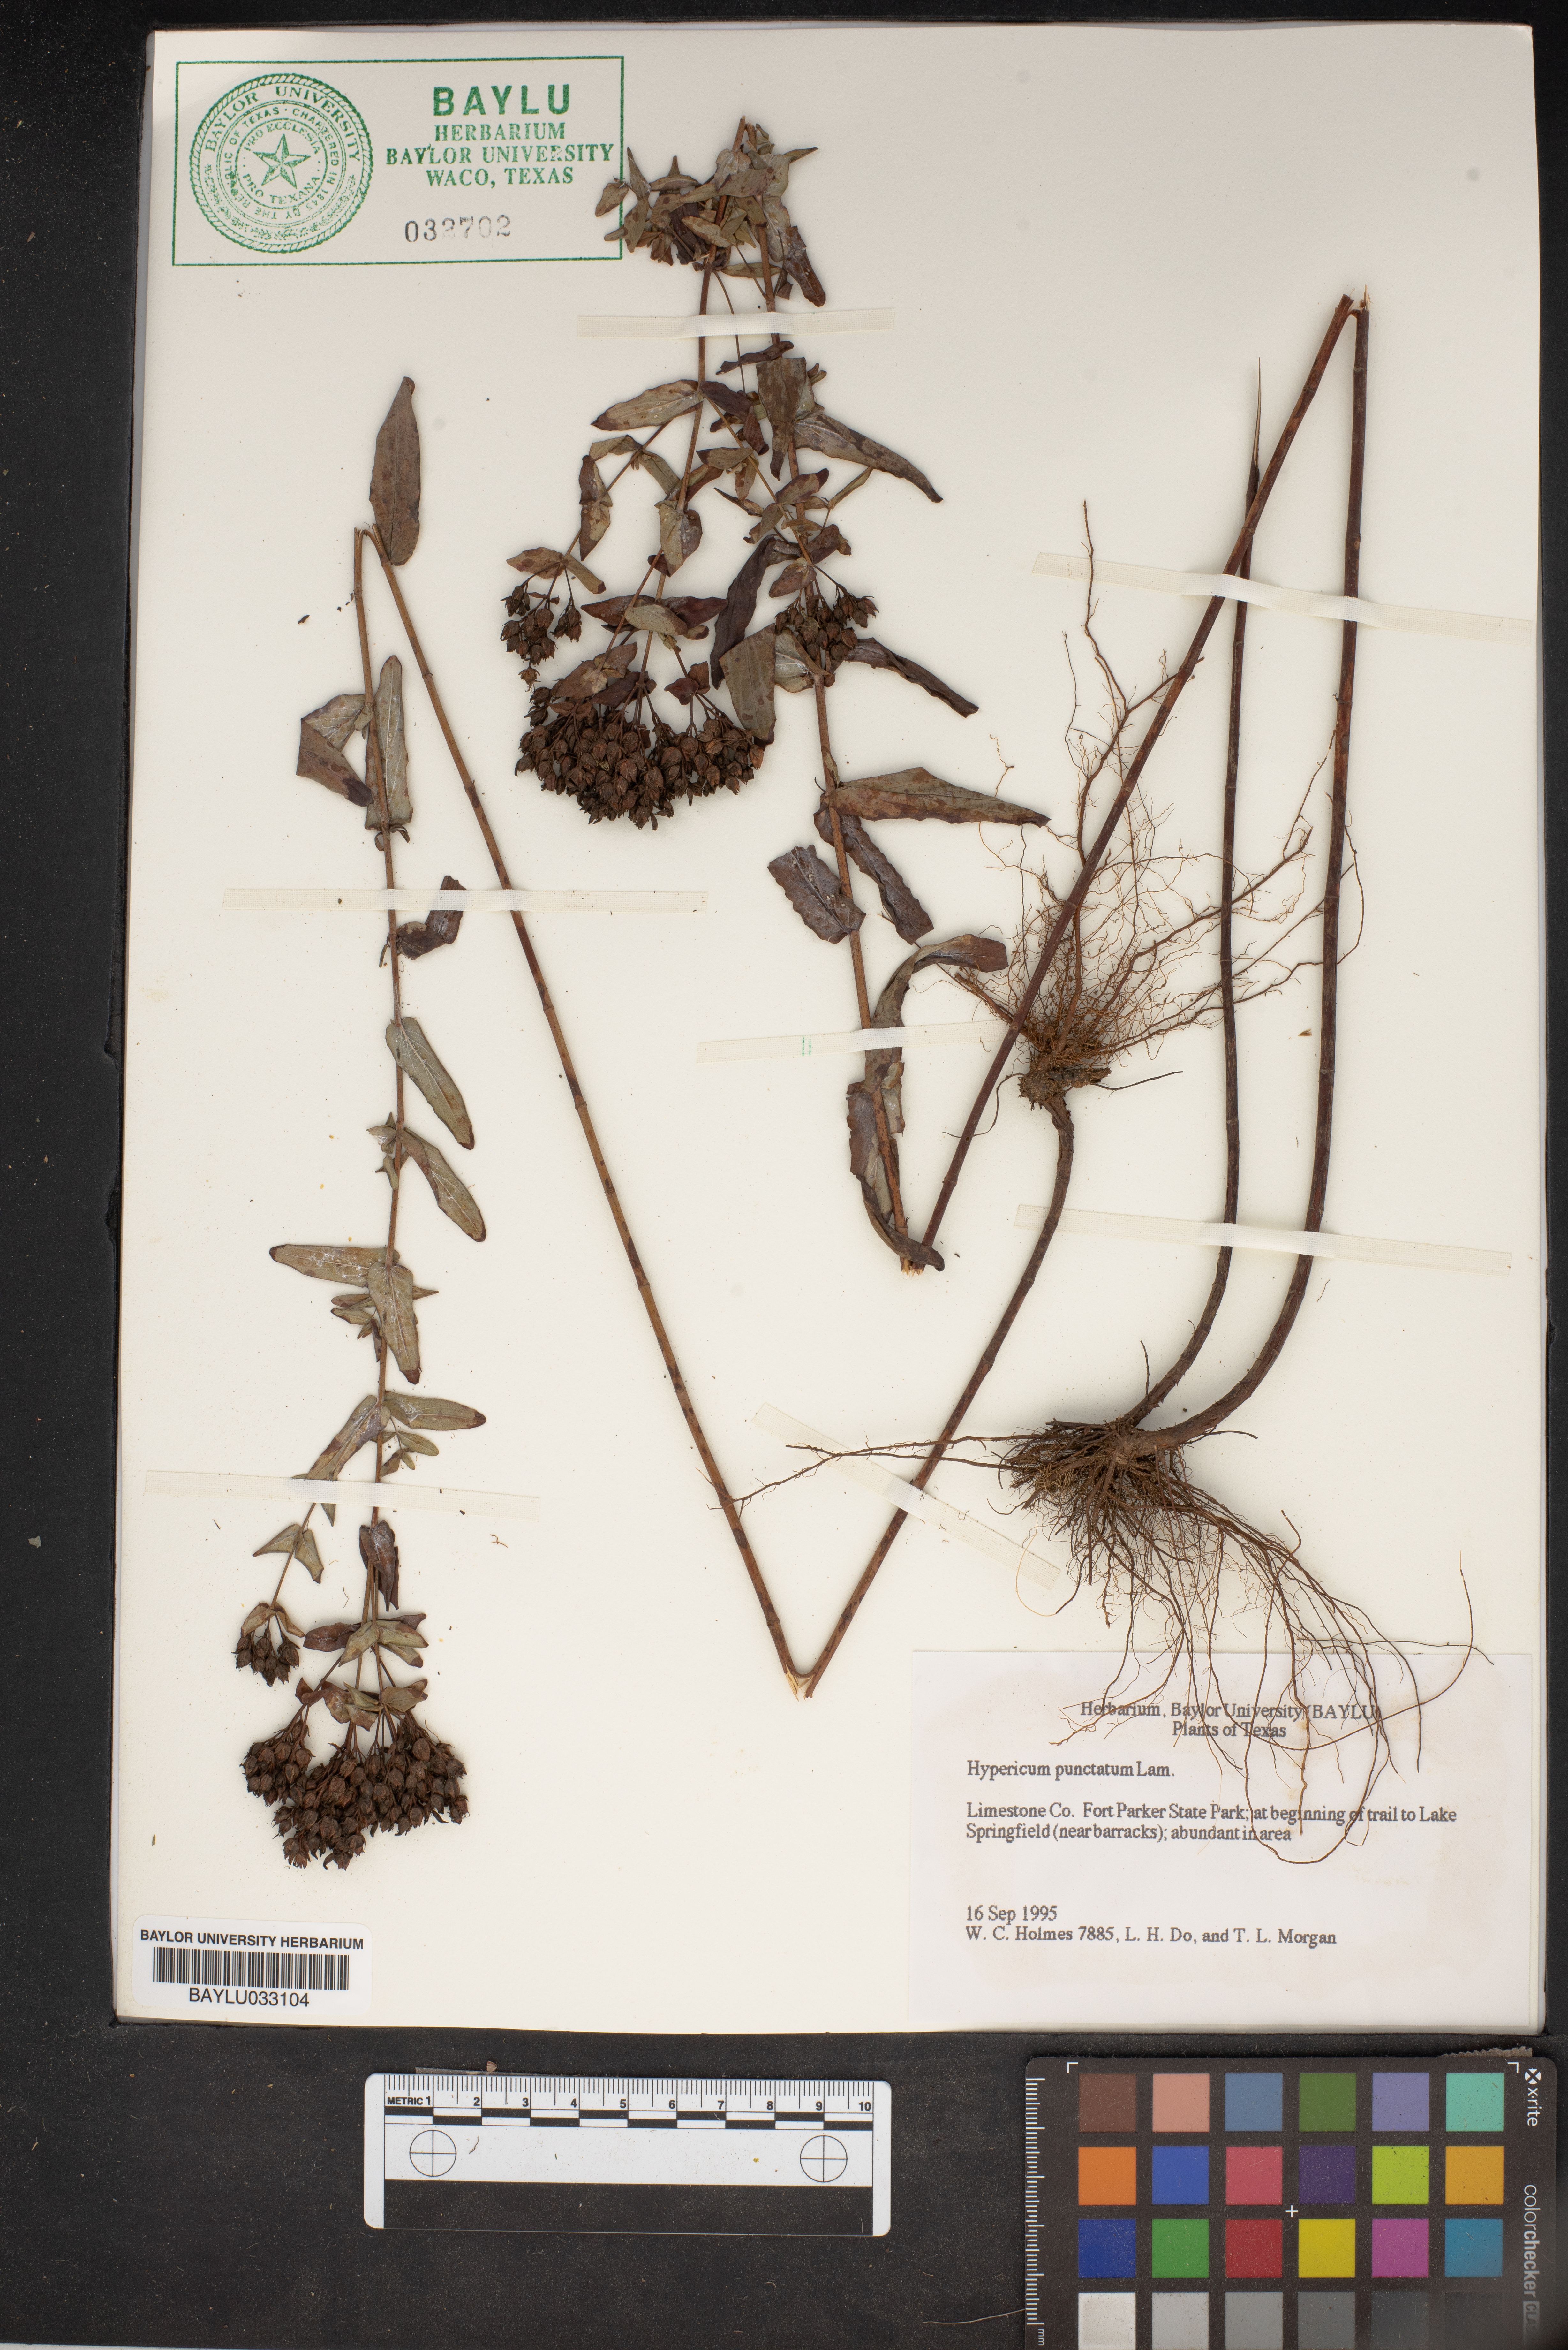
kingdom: Plantae
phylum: Tracheophyta
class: Magnoliopsida
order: Malpighiales
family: Hypericaceae
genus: Hypericum
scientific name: Hypericum punctatum
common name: Spotted st. john's-wort
